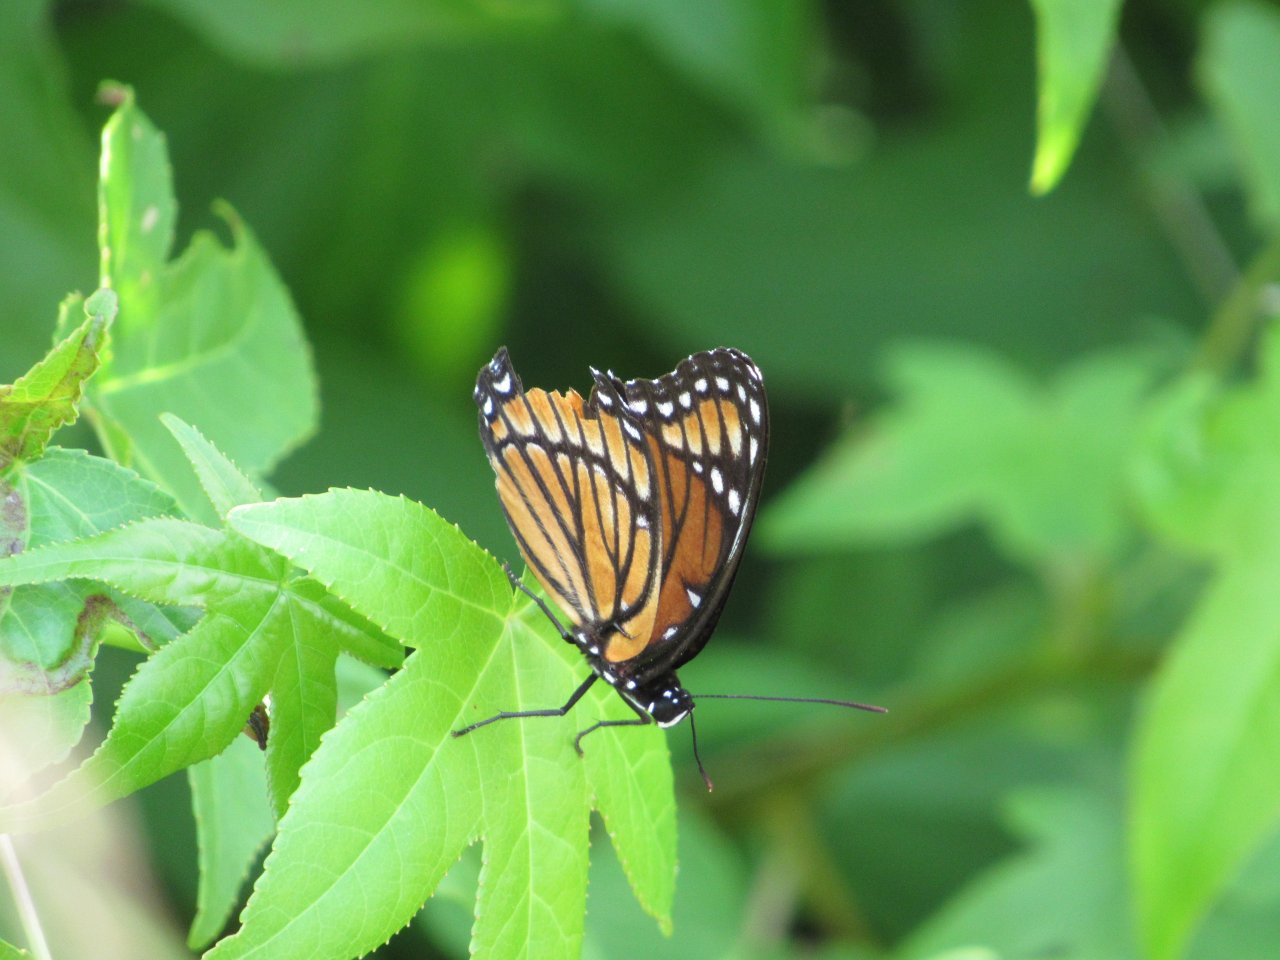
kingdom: Animalia
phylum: Arthropoda
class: Insecta
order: Lepidoptera
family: Nymphalidae
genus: Limenitis
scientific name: Limenitis archippus
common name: Viceroy
